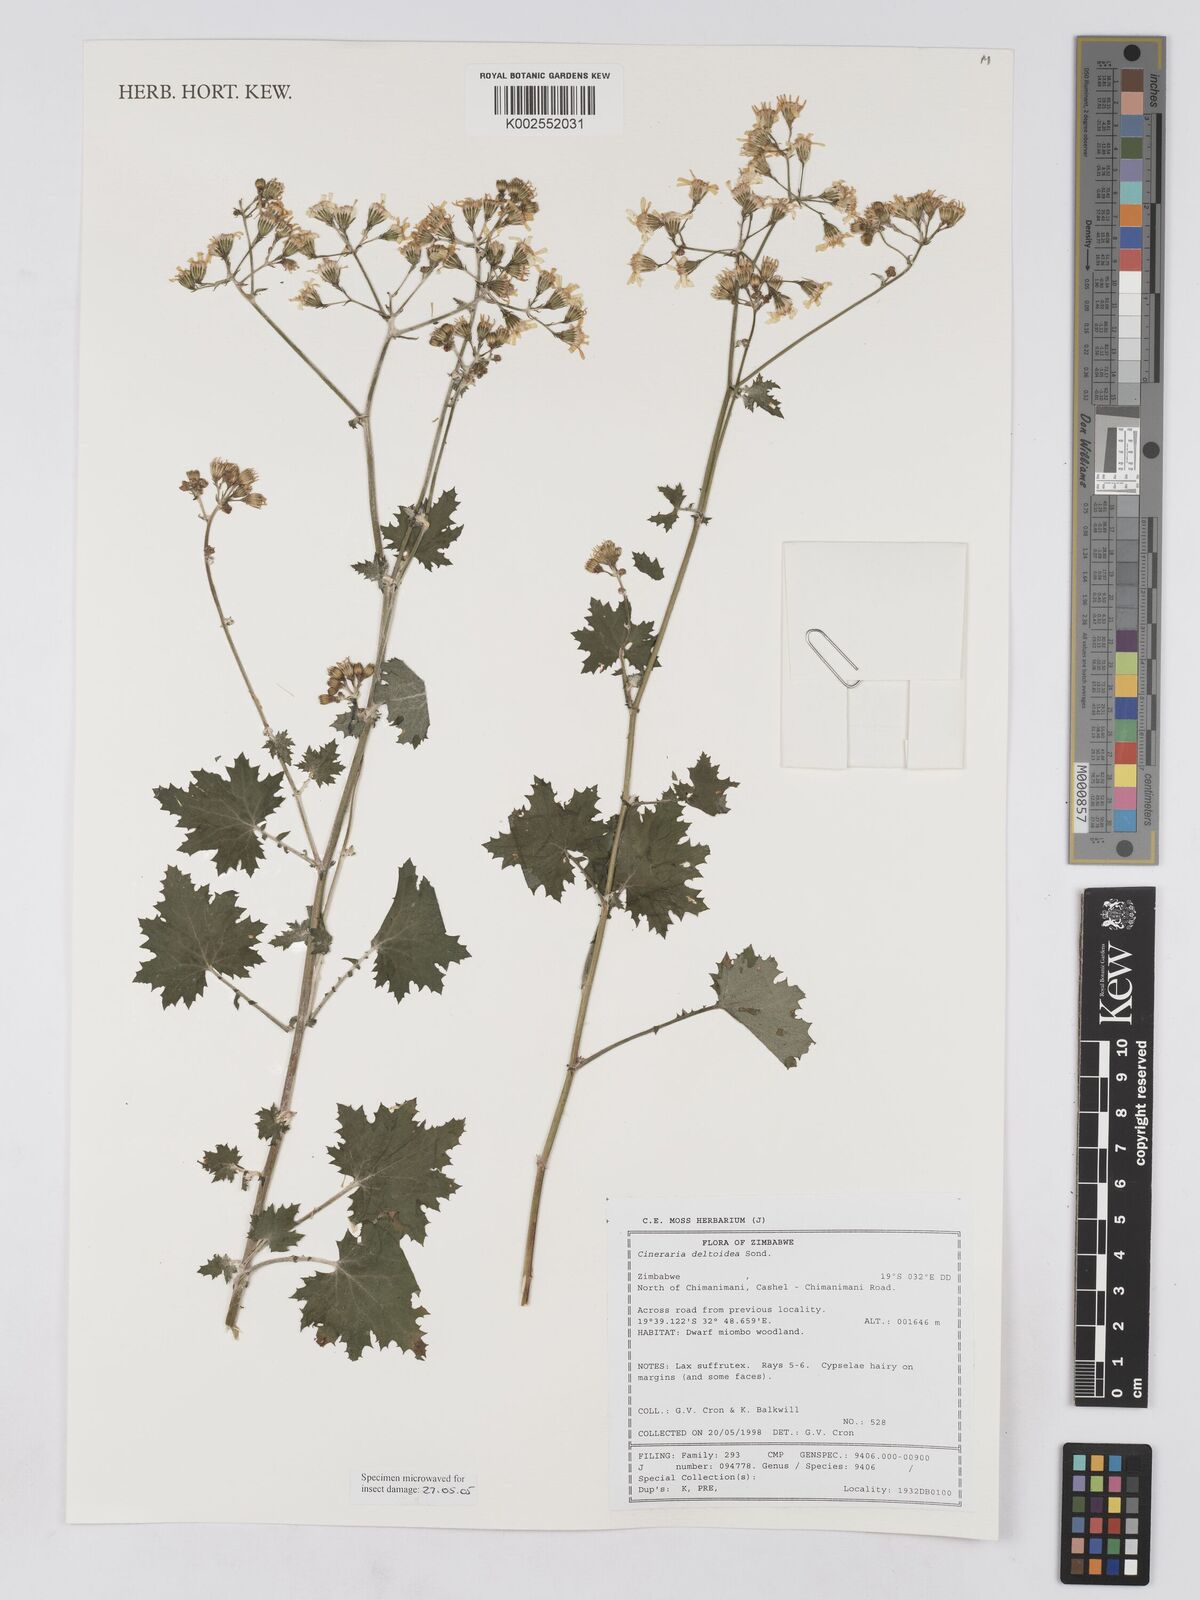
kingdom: Plantae
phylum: Tracheophyta
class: Magnoliopsida
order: Asterales
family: Asteraceae
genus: Cineraria
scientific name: Cineraria deltoidea
